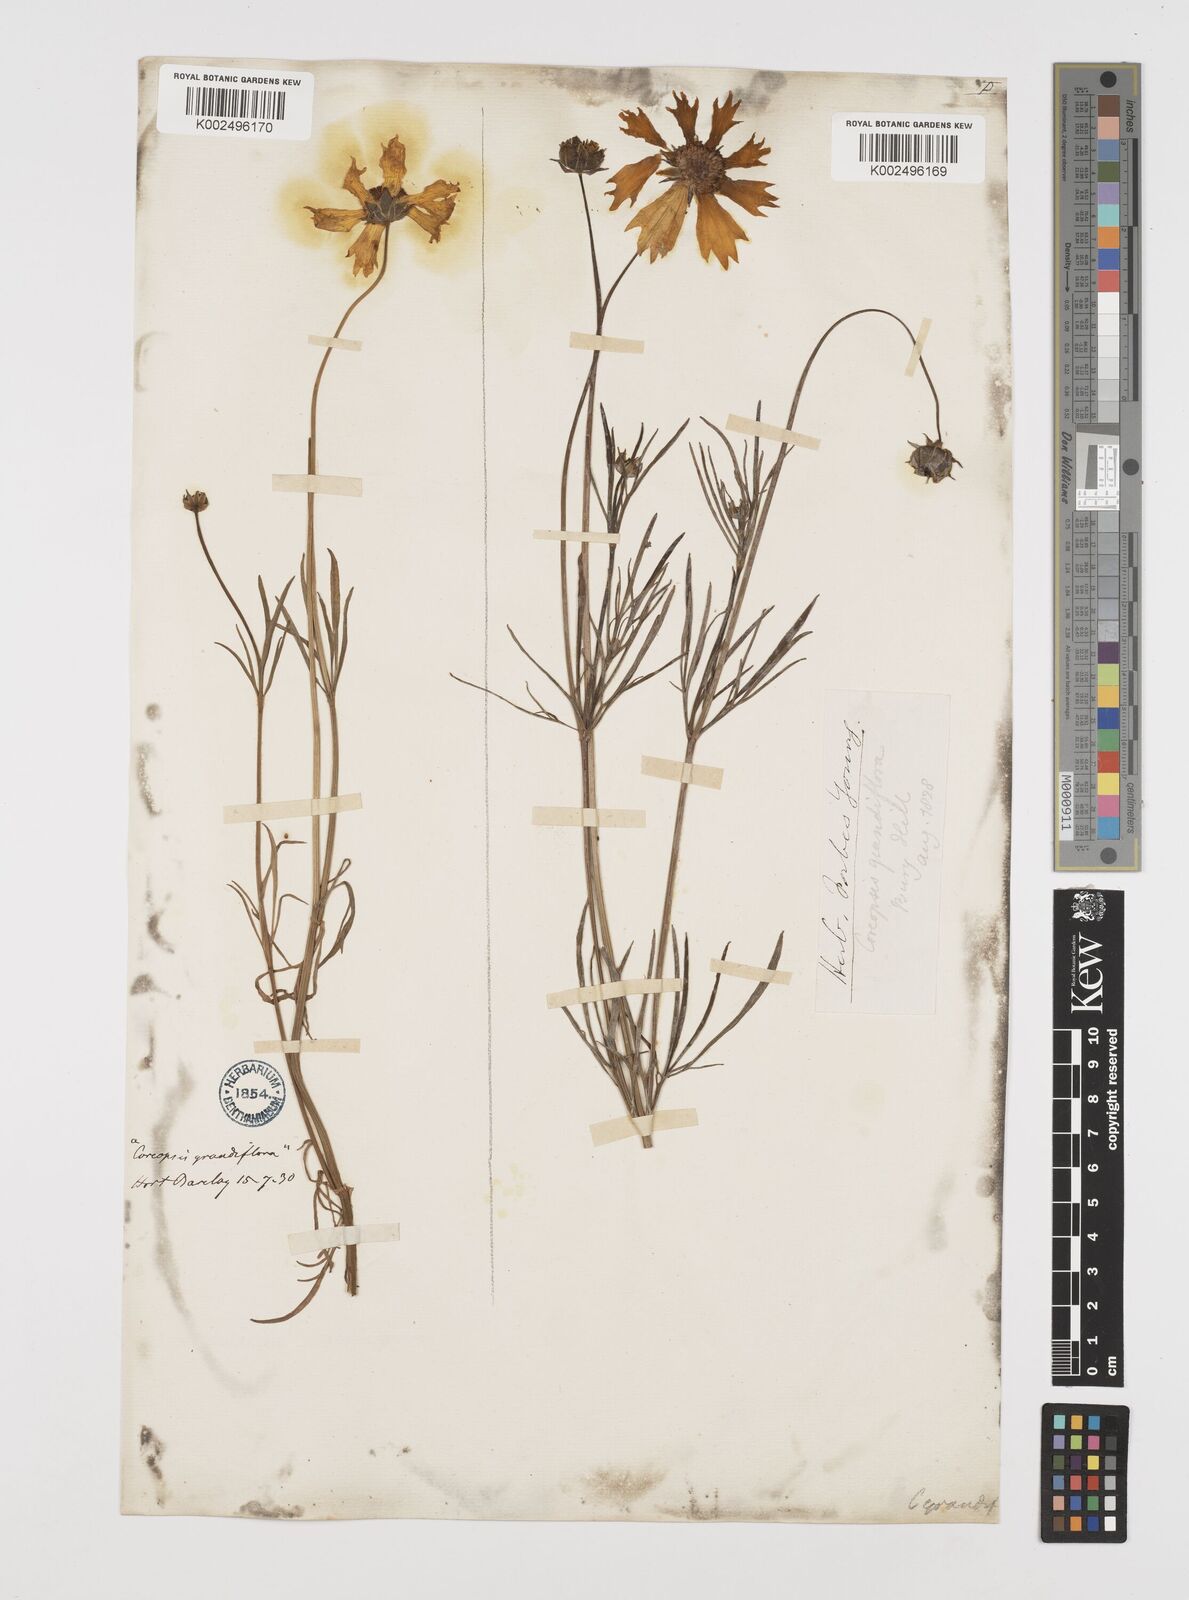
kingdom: Plantae
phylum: Tracheophyta
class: Magnoliopsida
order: Asterales
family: Asteraceae
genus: Coreopsis
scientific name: Coreopsis grandiflora
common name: Large-flowered tickseed
